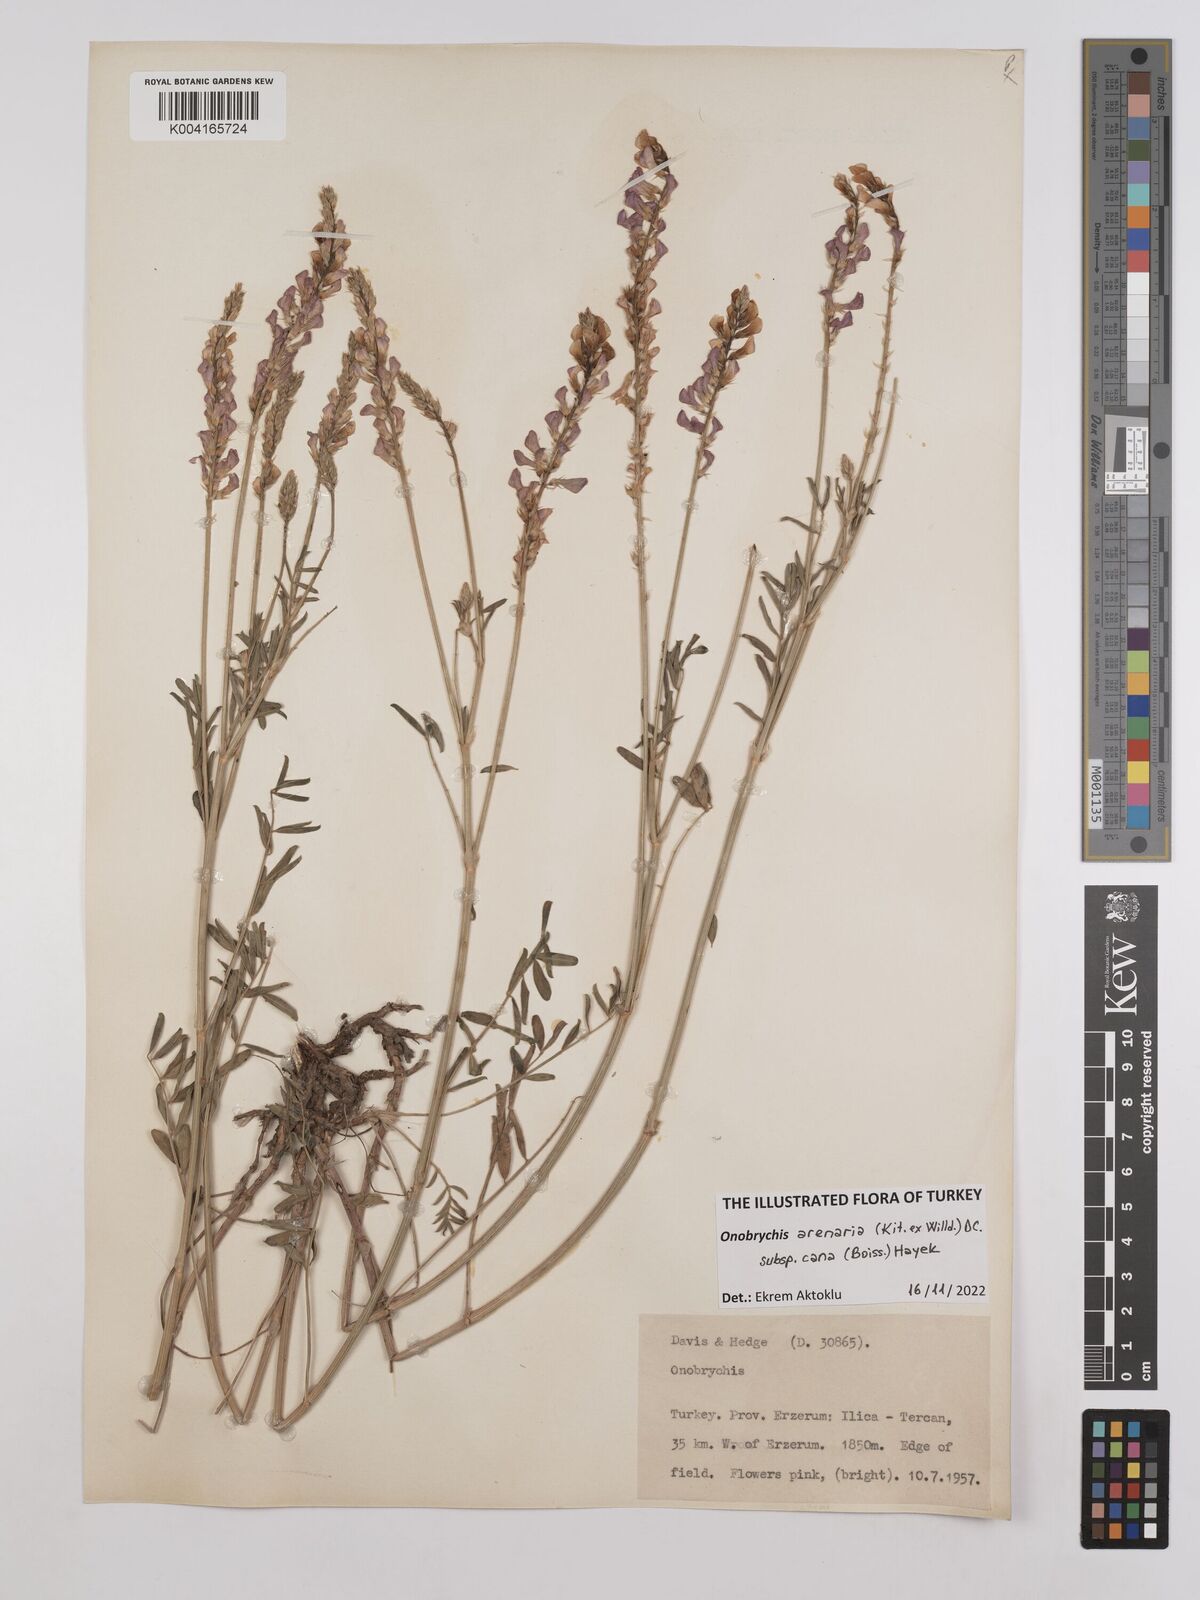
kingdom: Plantae
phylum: Tracheophyta
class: Magnoliopsida
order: Fabales
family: Fabaceae
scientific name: Fabaceae
